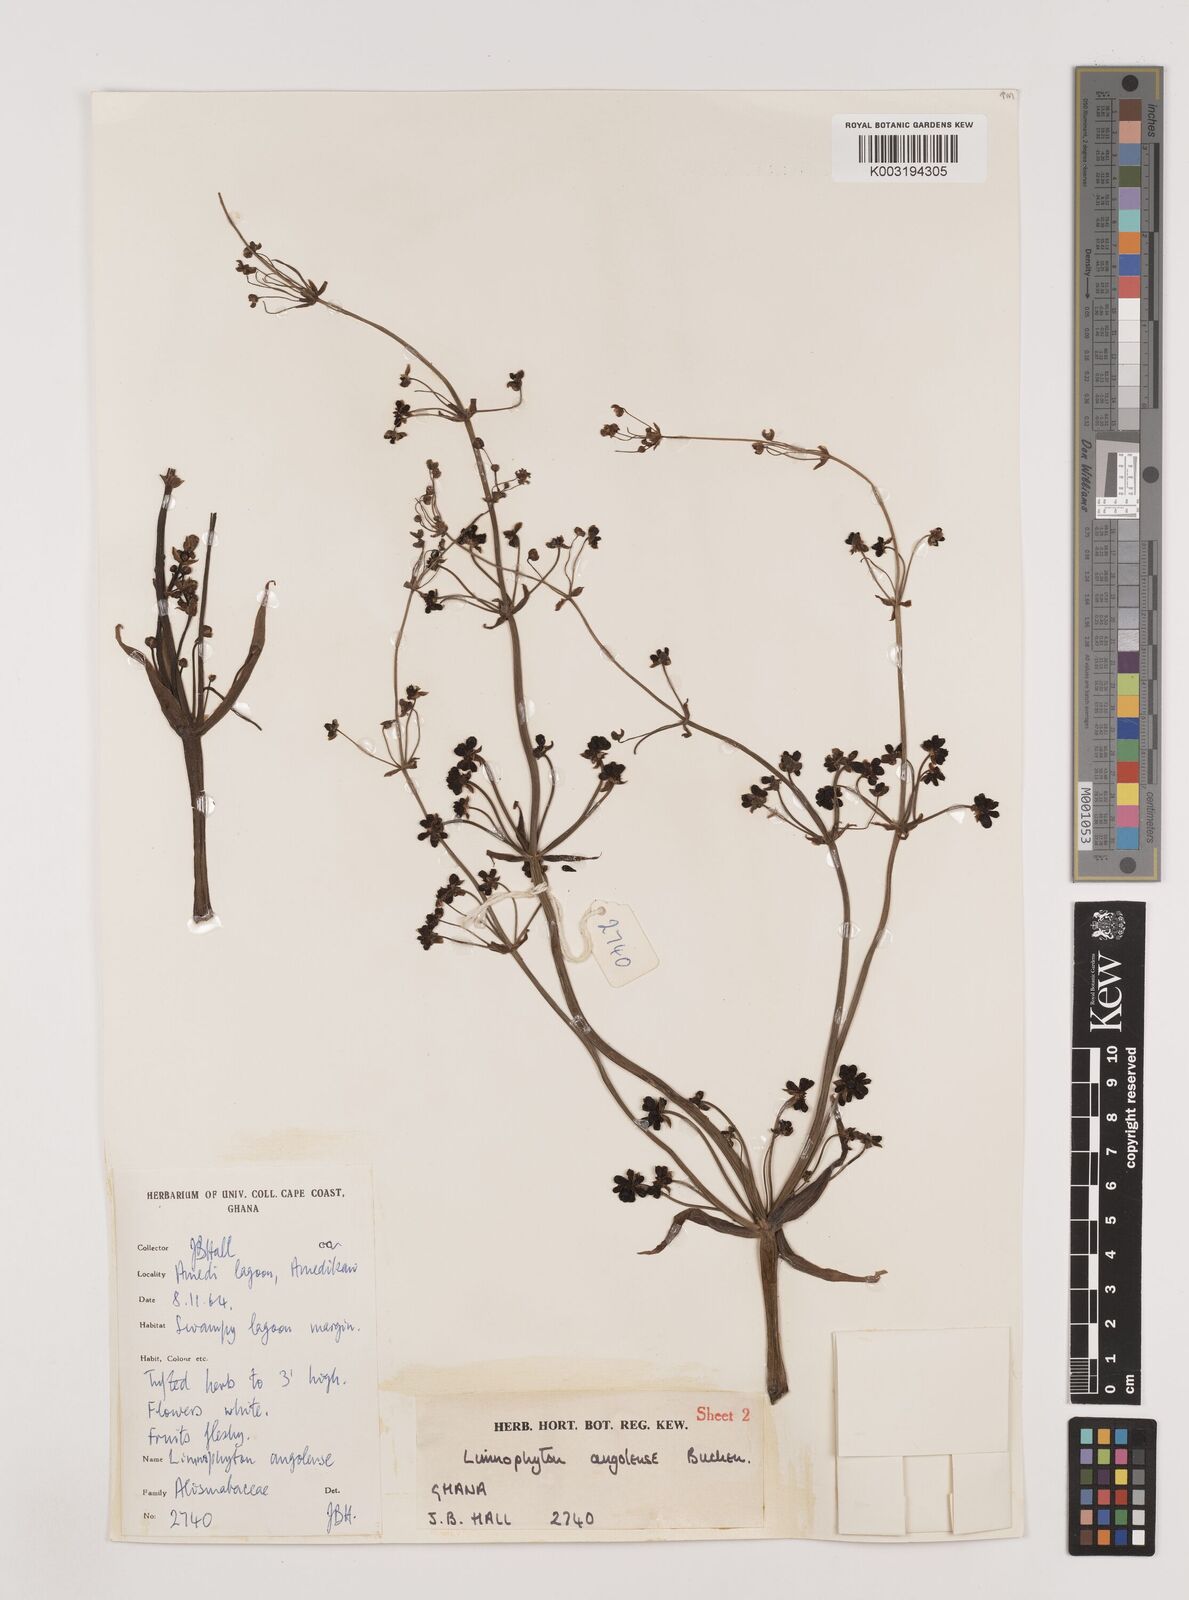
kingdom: Plantae
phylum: Tracheophyta
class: Liliopsida
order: Alismatales
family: Alismataceae
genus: Limnophyton
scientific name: Limnophyton angolense
